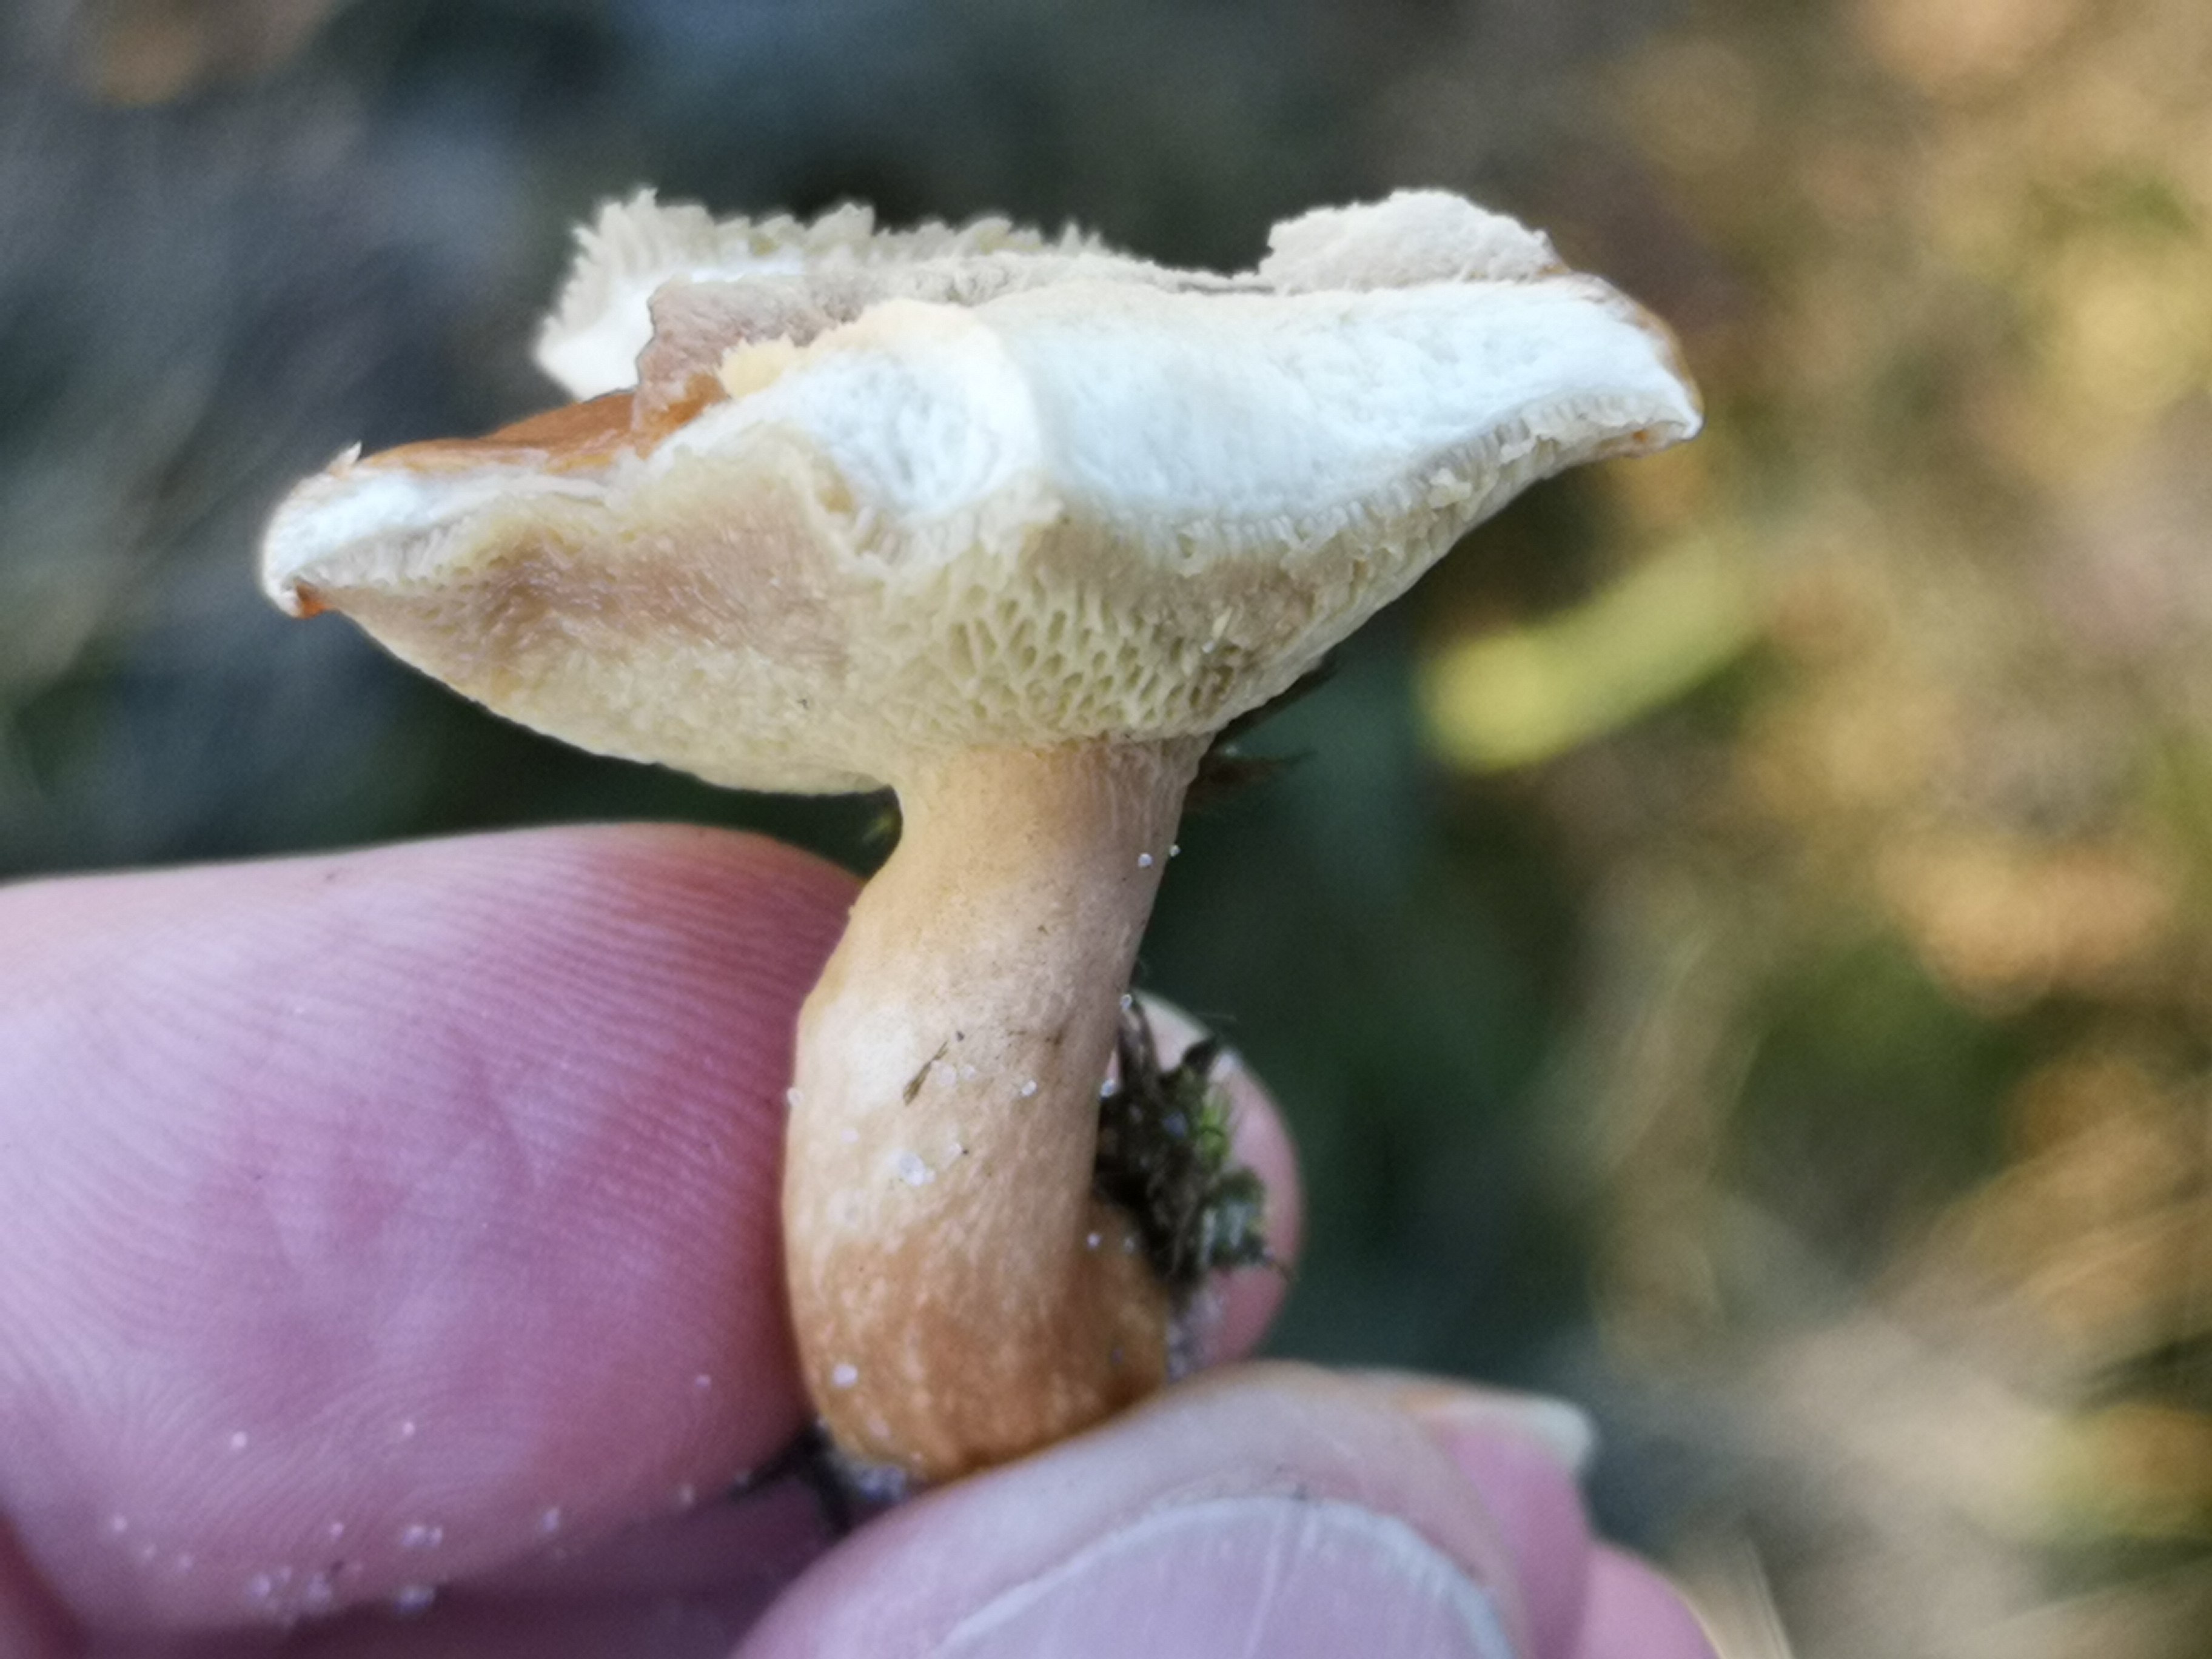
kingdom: Fungi
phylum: Basidiomycota
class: Agaricomycetes
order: Boletales
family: Suillaceae
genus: Suillus
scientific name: Suillus bovinus
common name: grovporet slimrørhat
